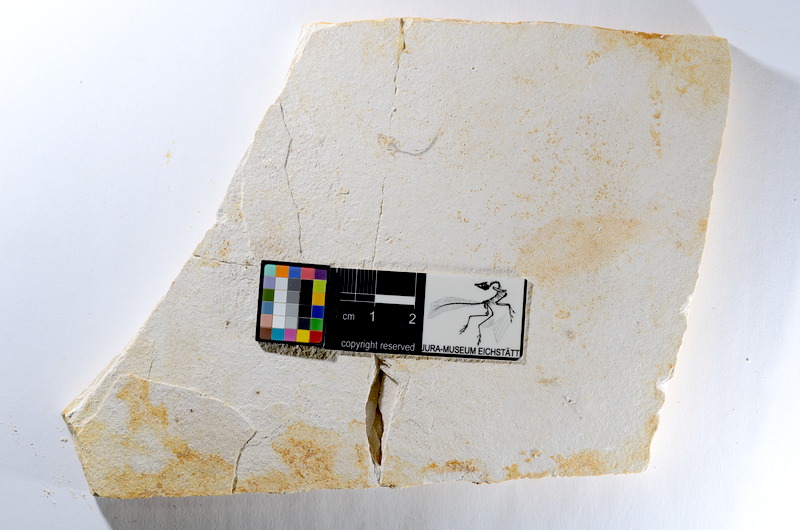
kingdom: Animalia
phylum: Chordata
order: Salmoniformes
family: Orthogonikleithridae
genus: Orthogonikleithrus
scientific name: Orthogonikleithrus hoelli
